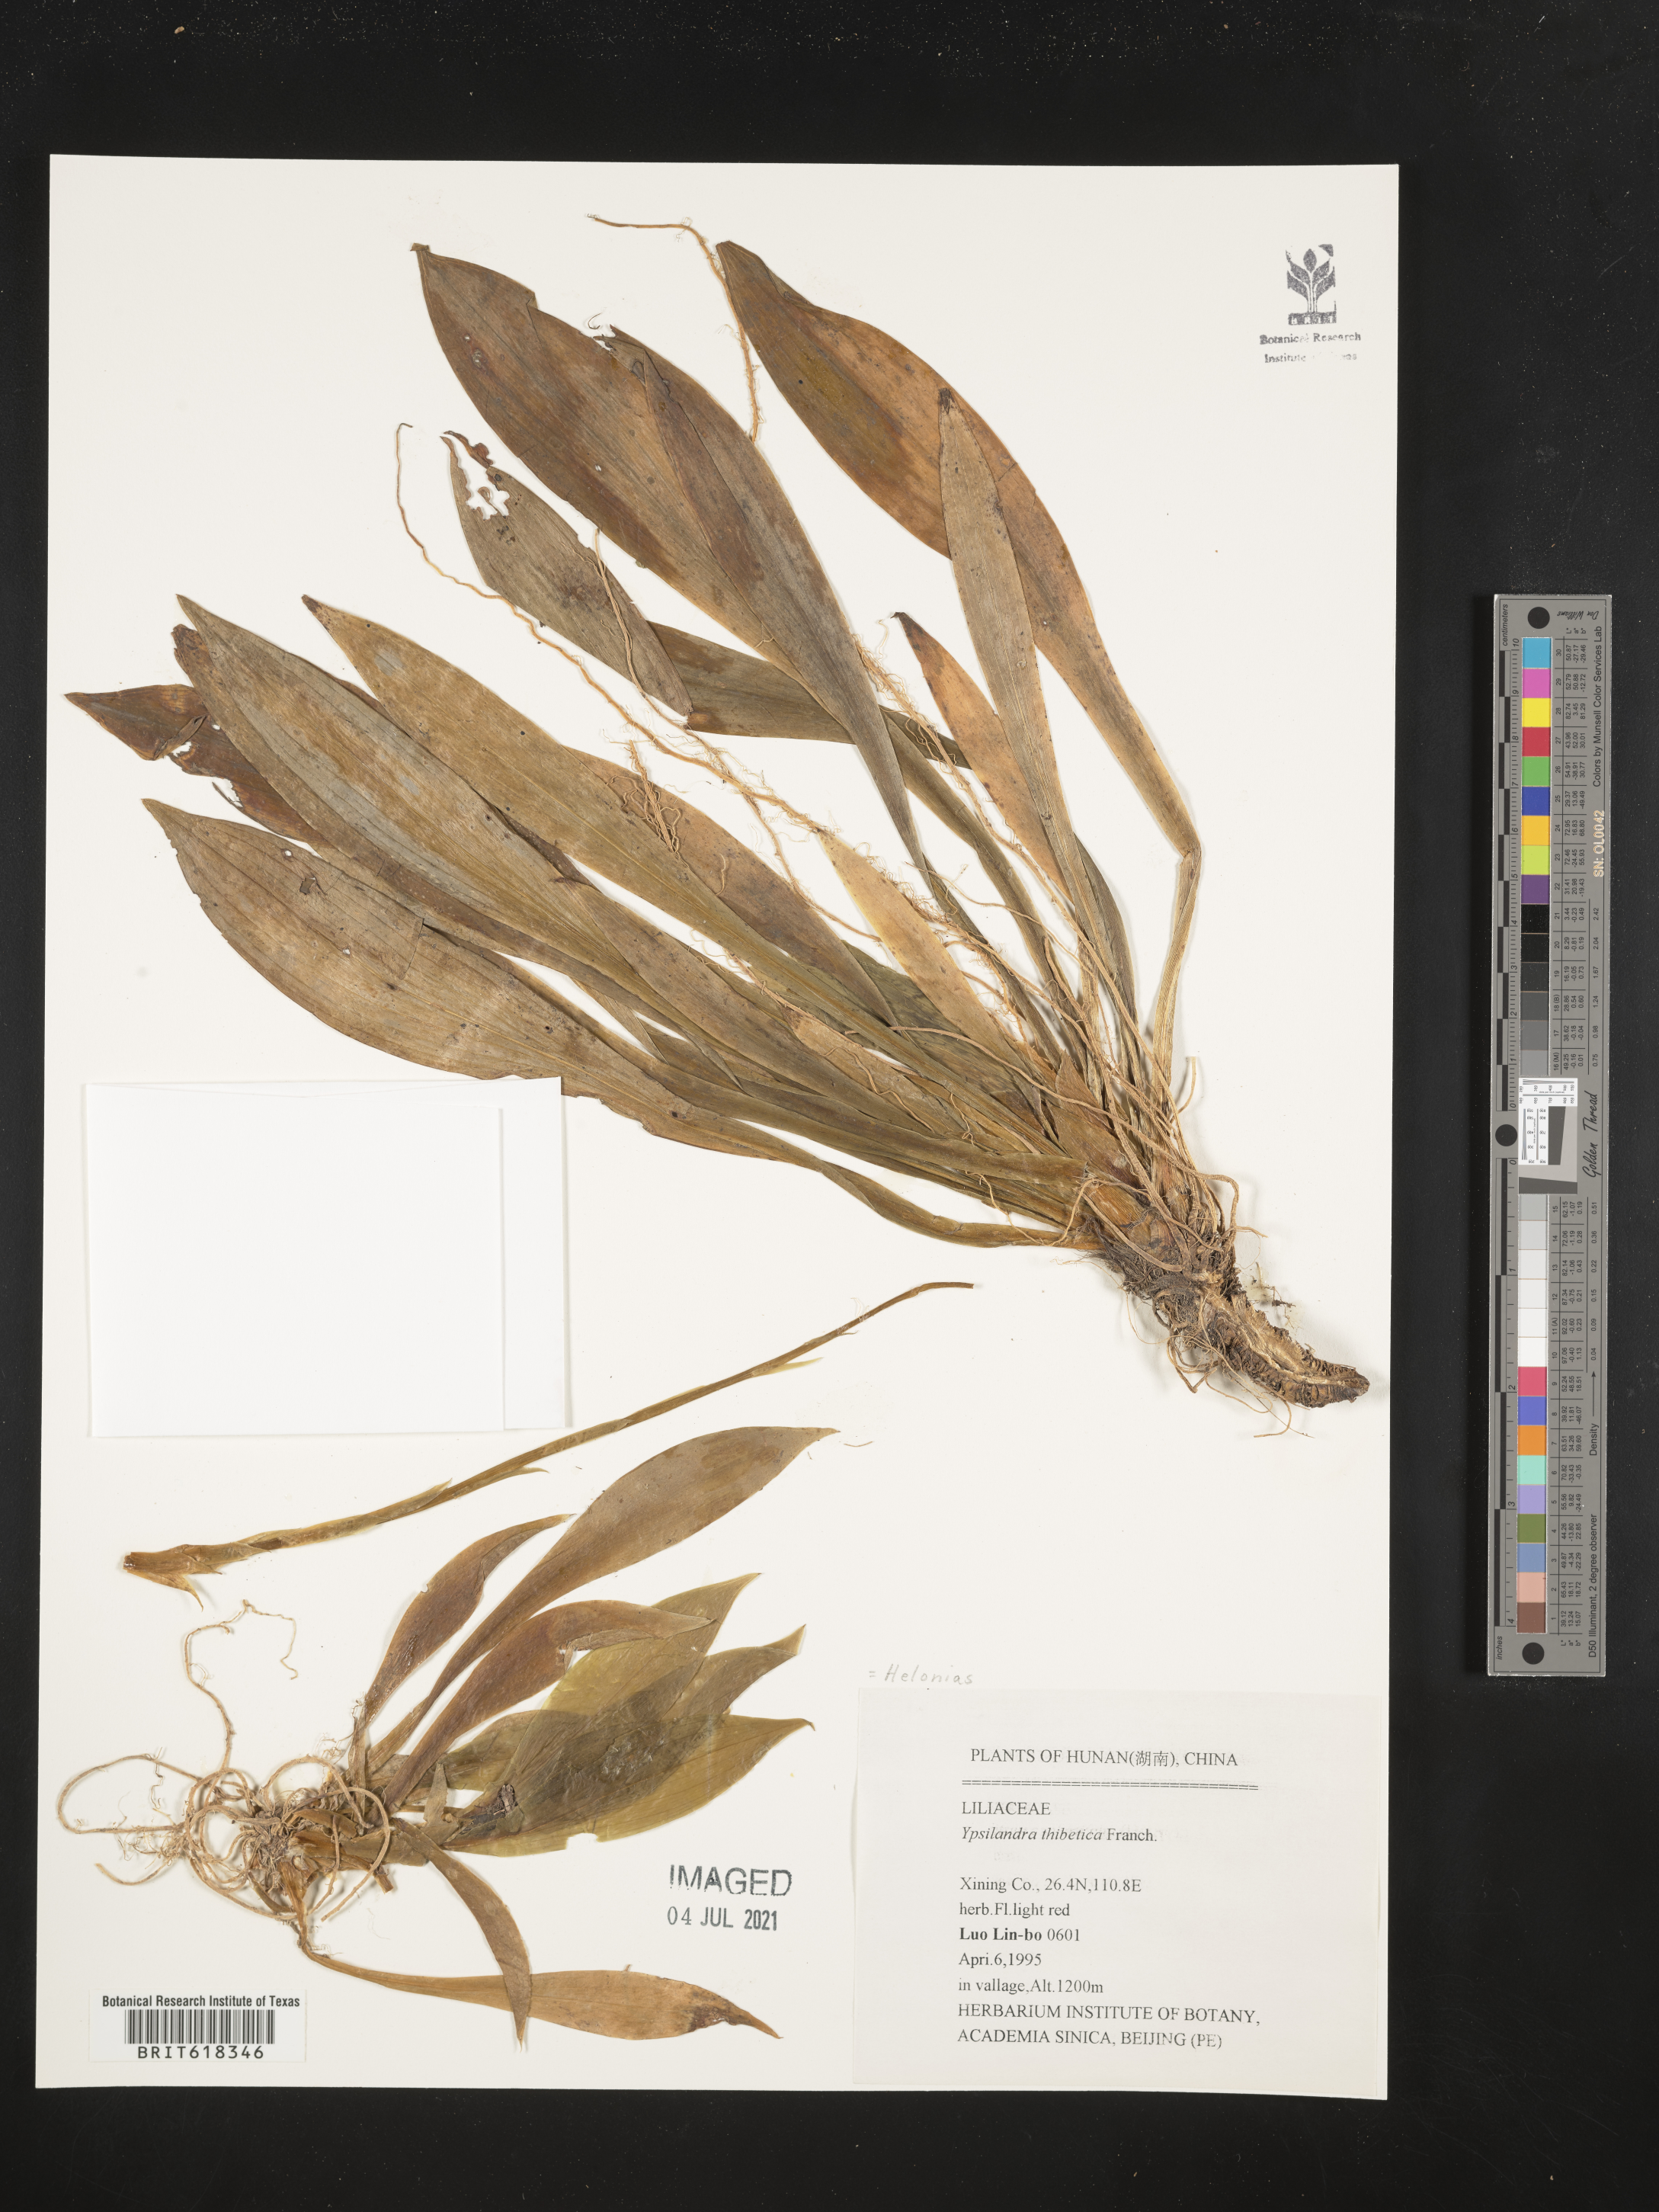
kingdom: Plantae
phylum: Tracheophyta
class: Liliopsida
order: Liliales
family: Melanthiaceae
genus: Helonias
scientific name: Helonias thibetica
